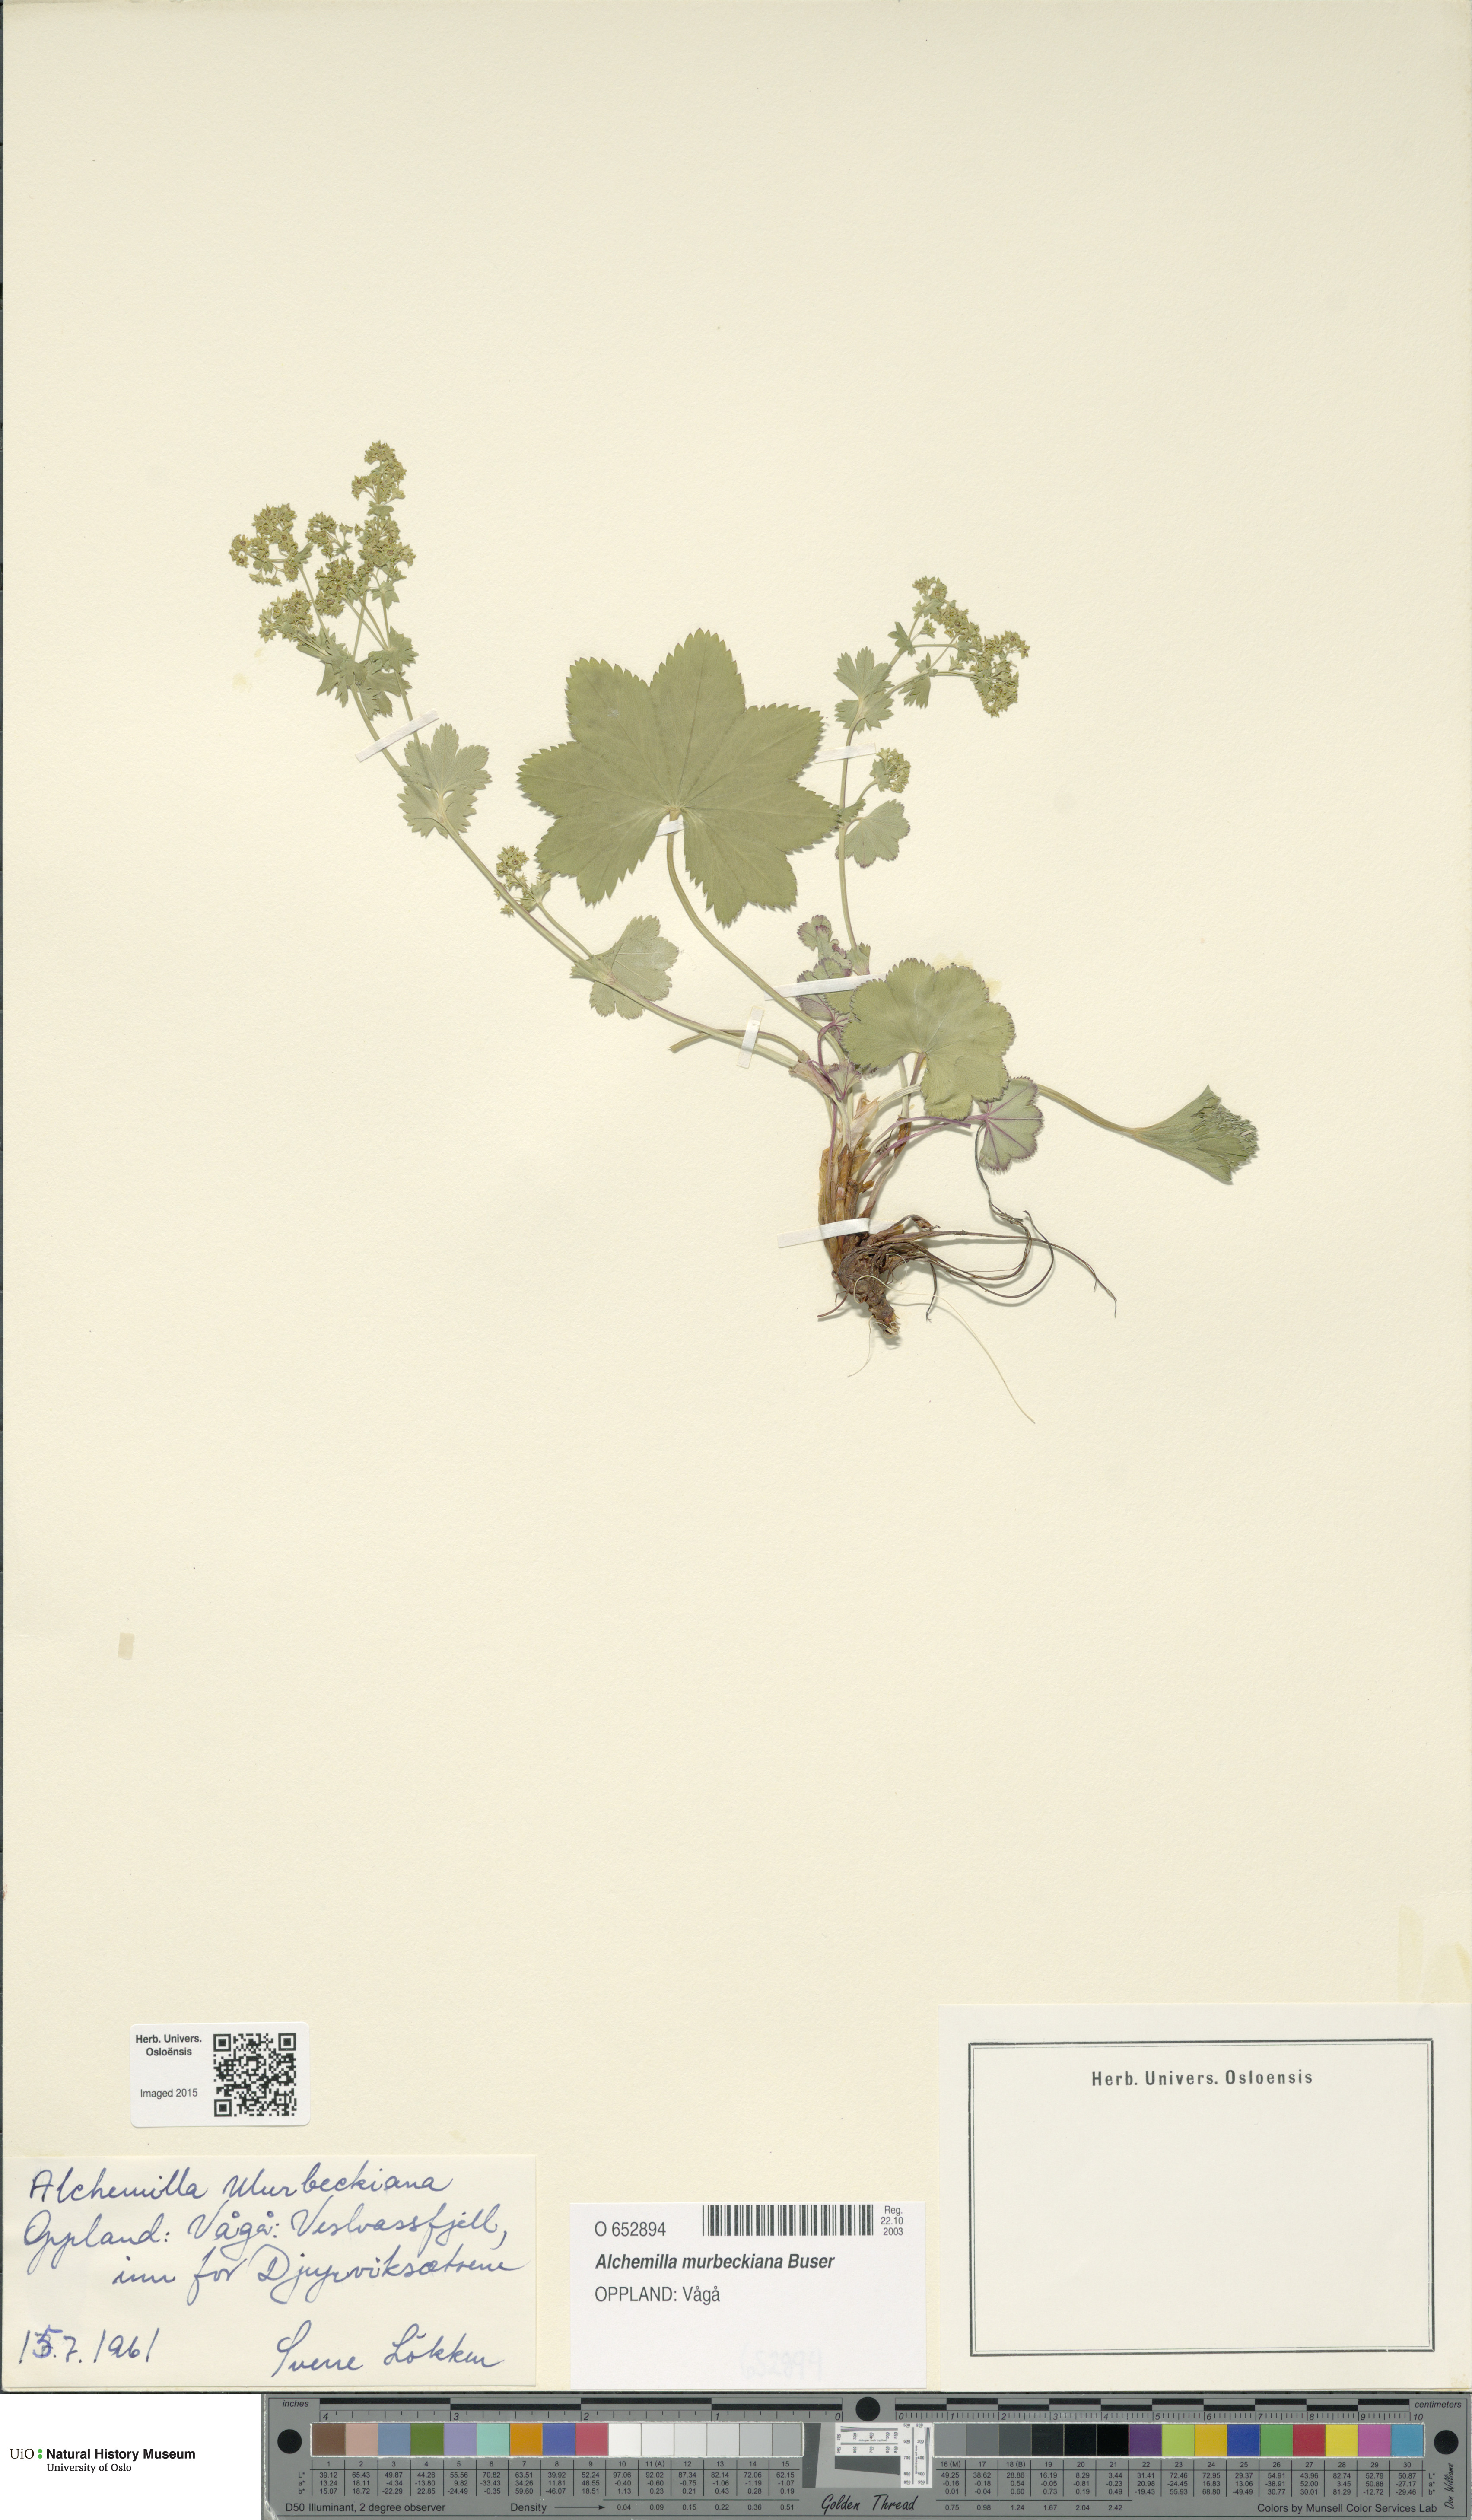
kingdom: Plantae
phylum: Tracheophyta
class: Magnoliopsida
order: Rosales
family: Rosaceae
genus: Alchemilla
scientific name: Alchemilla murbeckiana
